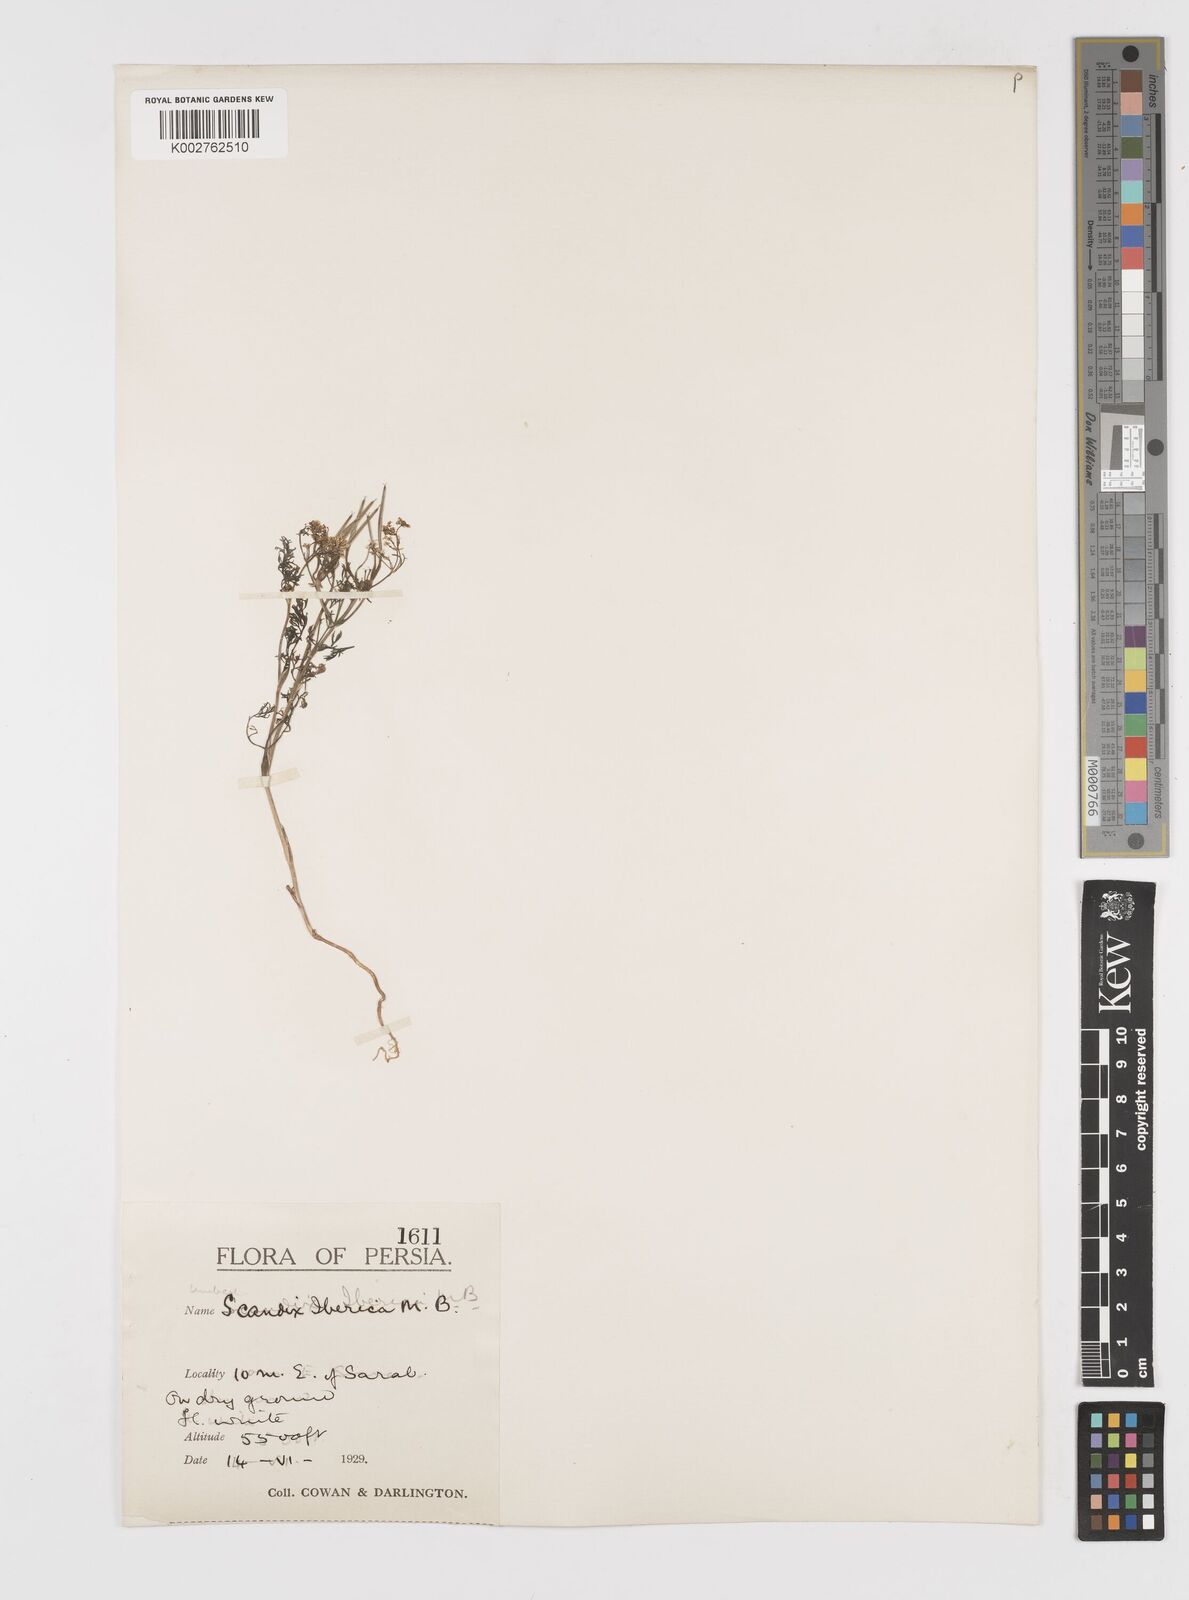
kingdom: Plantae
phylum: Tracheophyta
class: Magnoliopsida
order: Apiales
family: Apiaceae
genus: Scandix
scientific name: Scandix iberica
